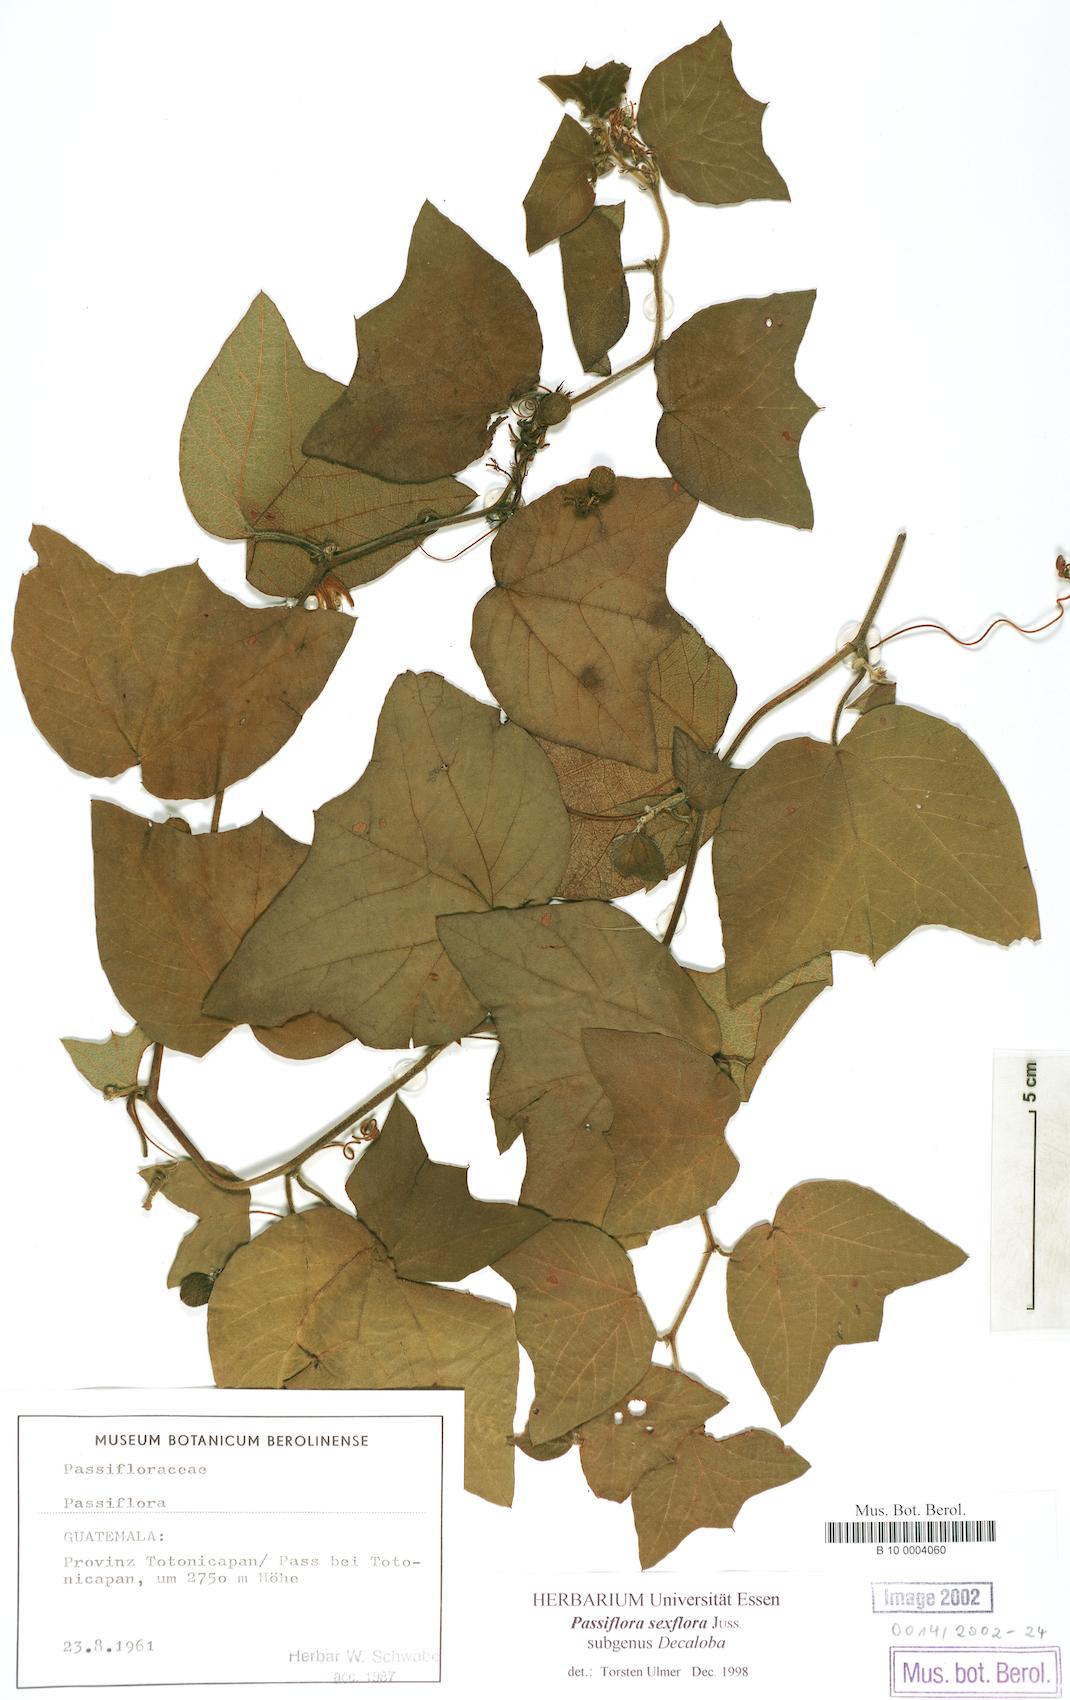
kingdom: Plantae
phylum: Tracheophyta
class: Magnoliopsida
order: Malpighiales
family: Passifloraceae
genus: Passiflora
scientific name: Passiflora sexflora
